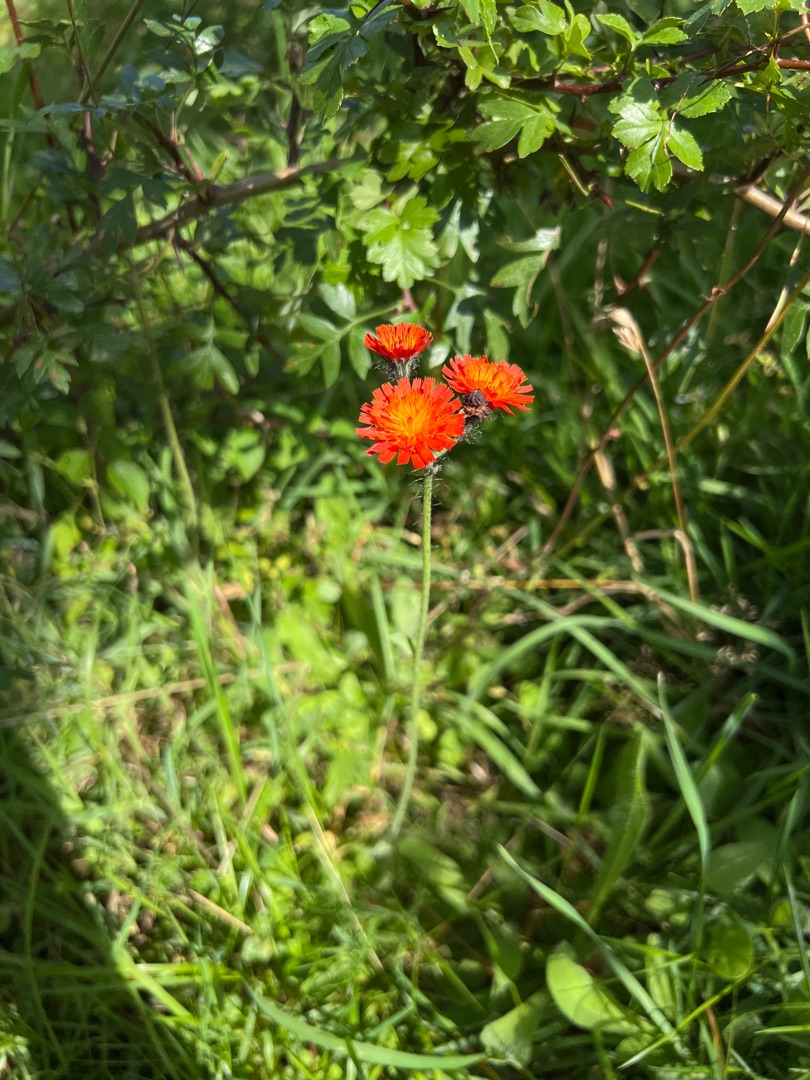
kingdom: Plantae
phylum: Tracheophyta
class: Magnoliopsida
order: Asterales
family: Asteraceae
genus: Pilosella
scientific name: Pilosella aurantiaca
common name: Pomerans-høgeurt
